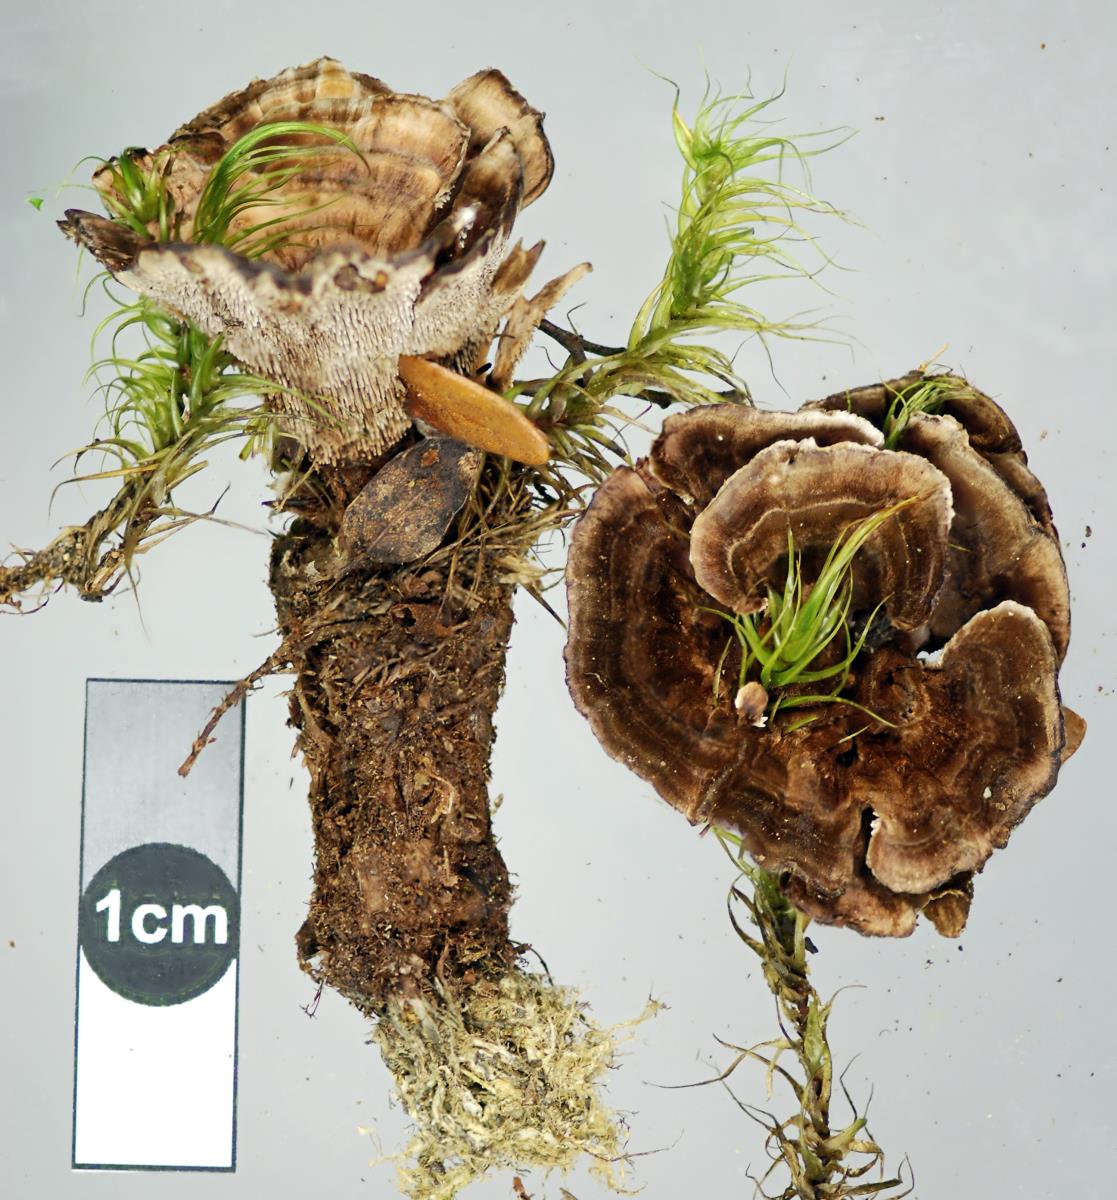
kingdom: Fungi
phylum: Basidiomycota
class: Agaricomycetes
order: Thelephorales
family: Thelephoraceae
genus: Phellodon
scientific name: Phellodon plicatus
